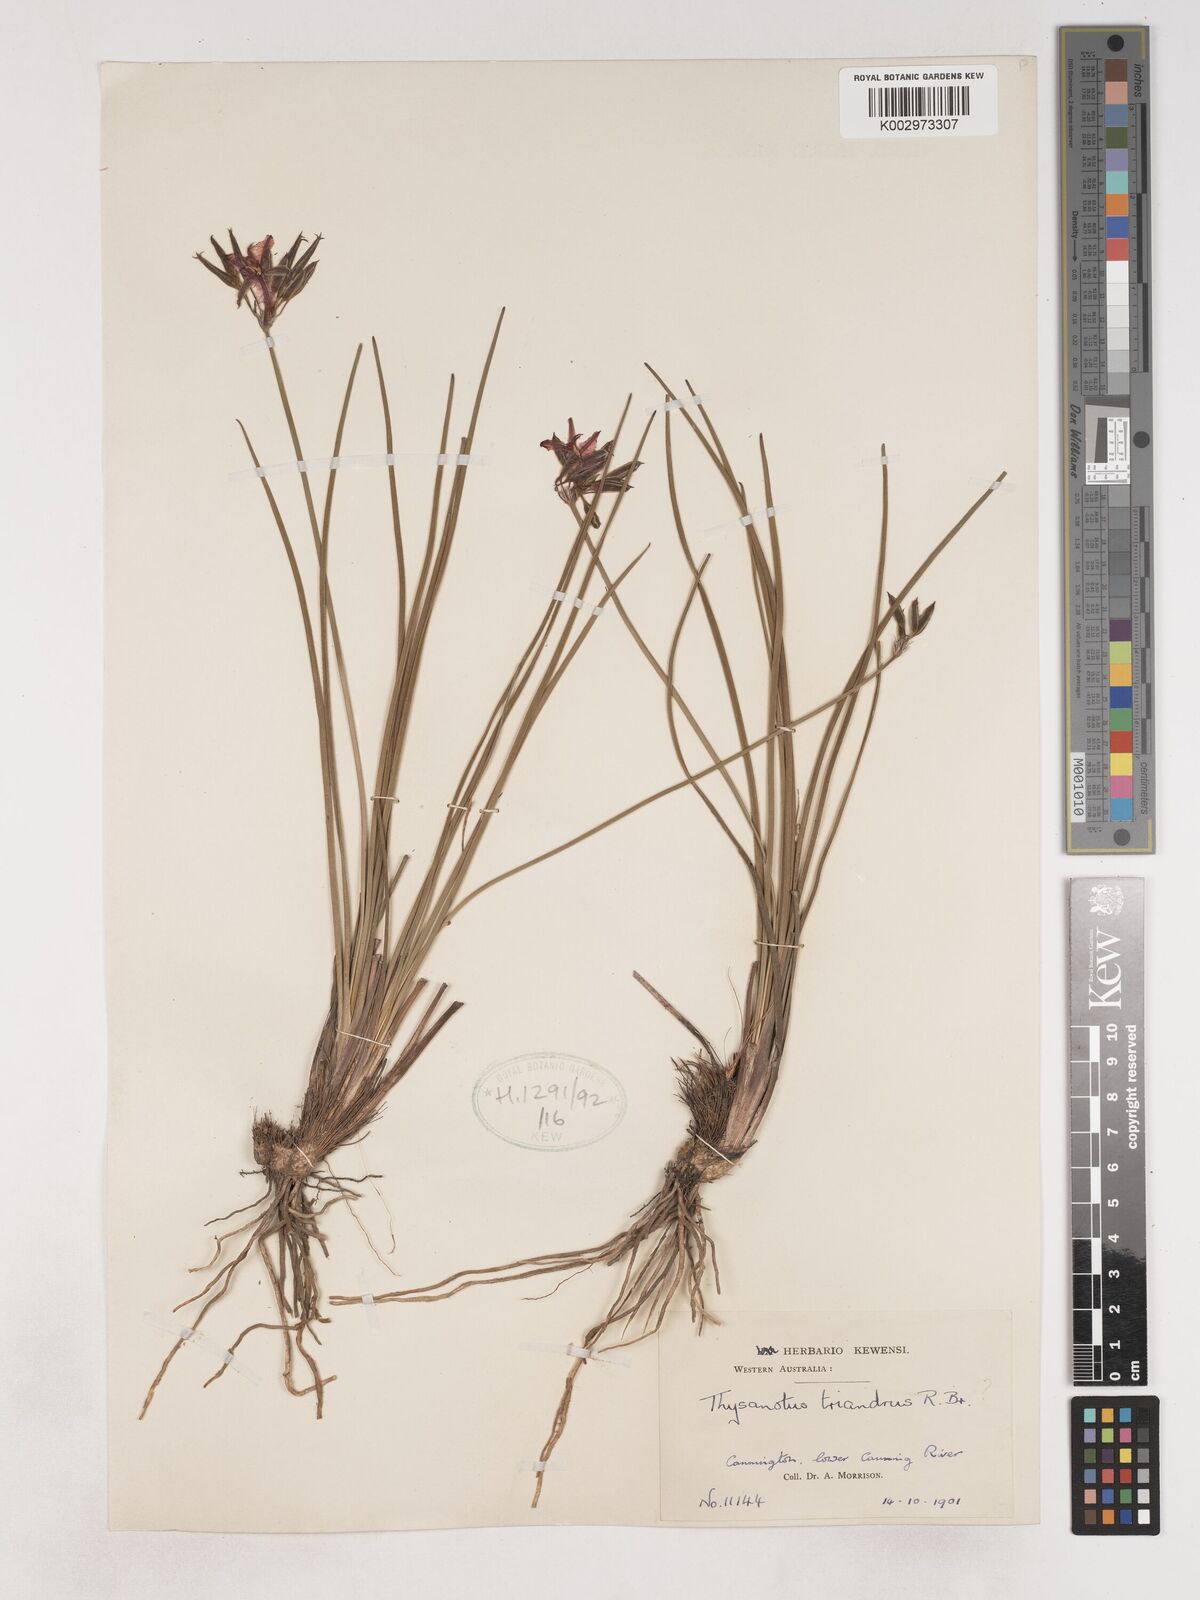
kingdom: Plantae
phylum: Tracheophyta
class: Liliopsida
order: Asparagales
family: Asparagaceae
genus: Thysanotus
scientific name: Thysanotus triandrus
